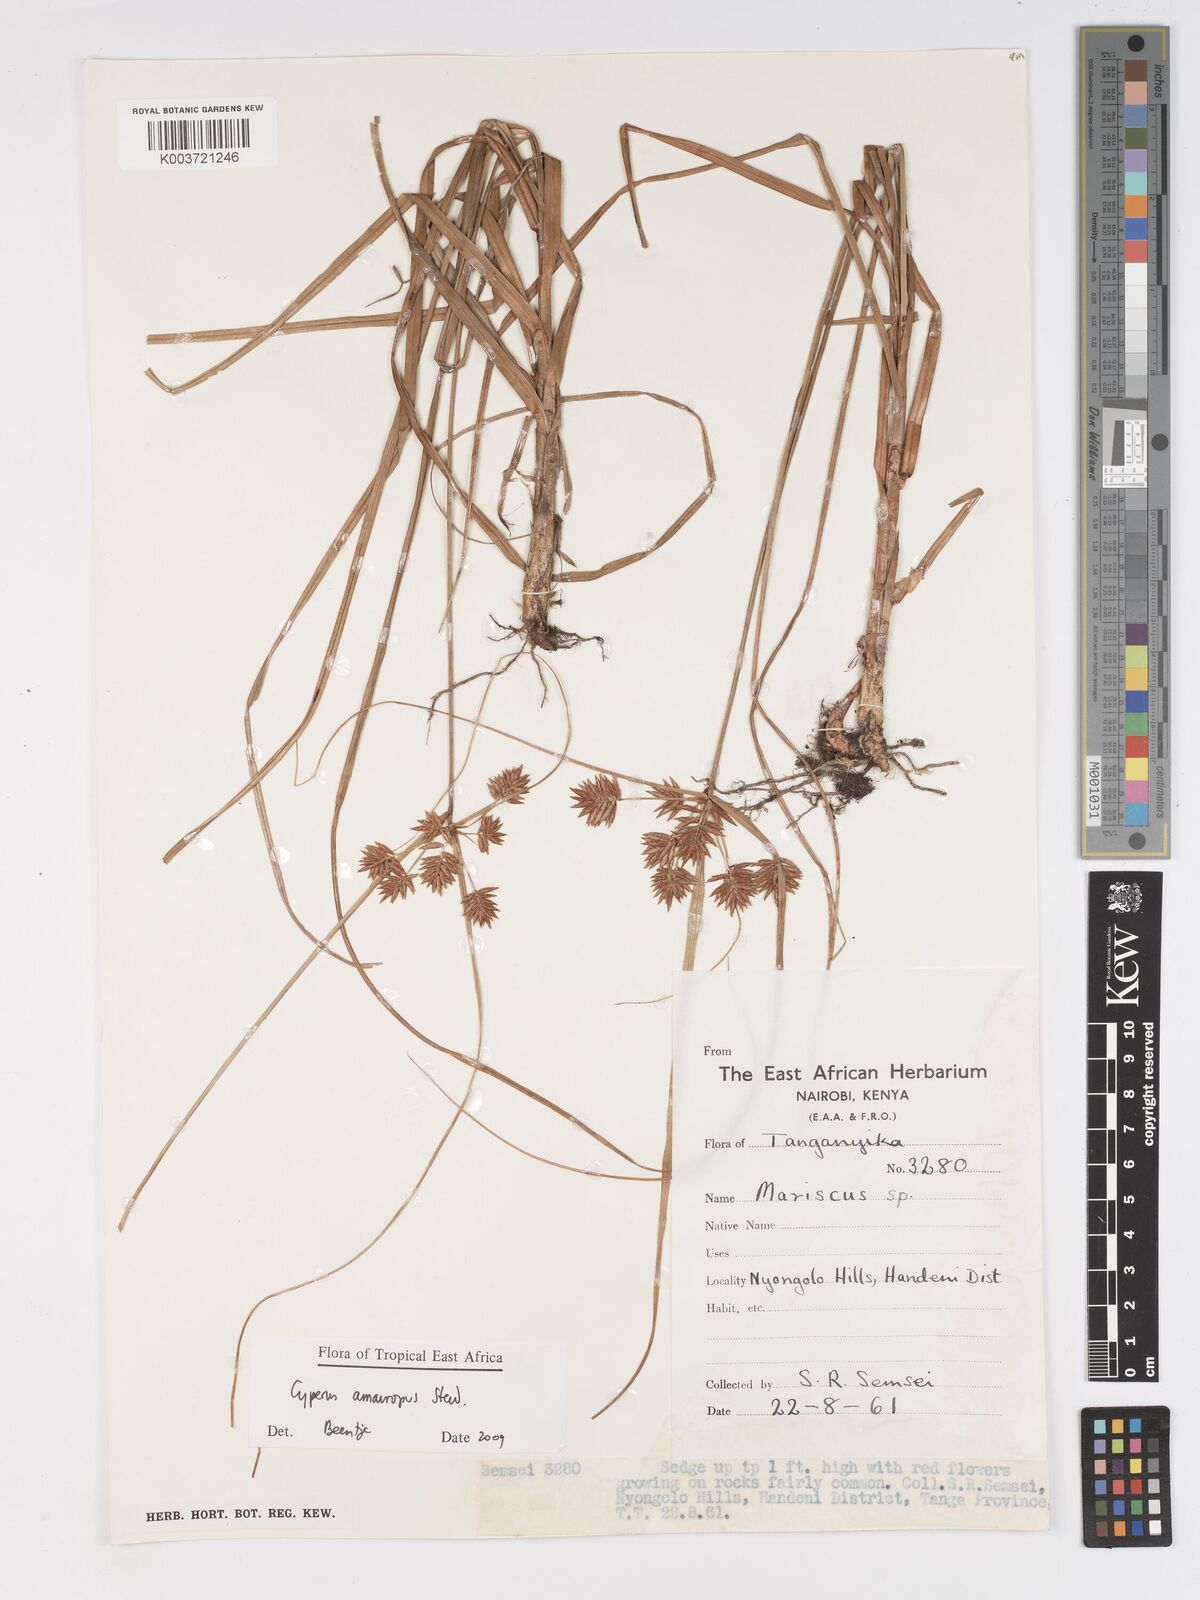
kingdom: Plantae
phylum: Tracheophyta
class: Liliopsida
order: Poales
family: Cyperaceae
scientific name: Cyperaceae
